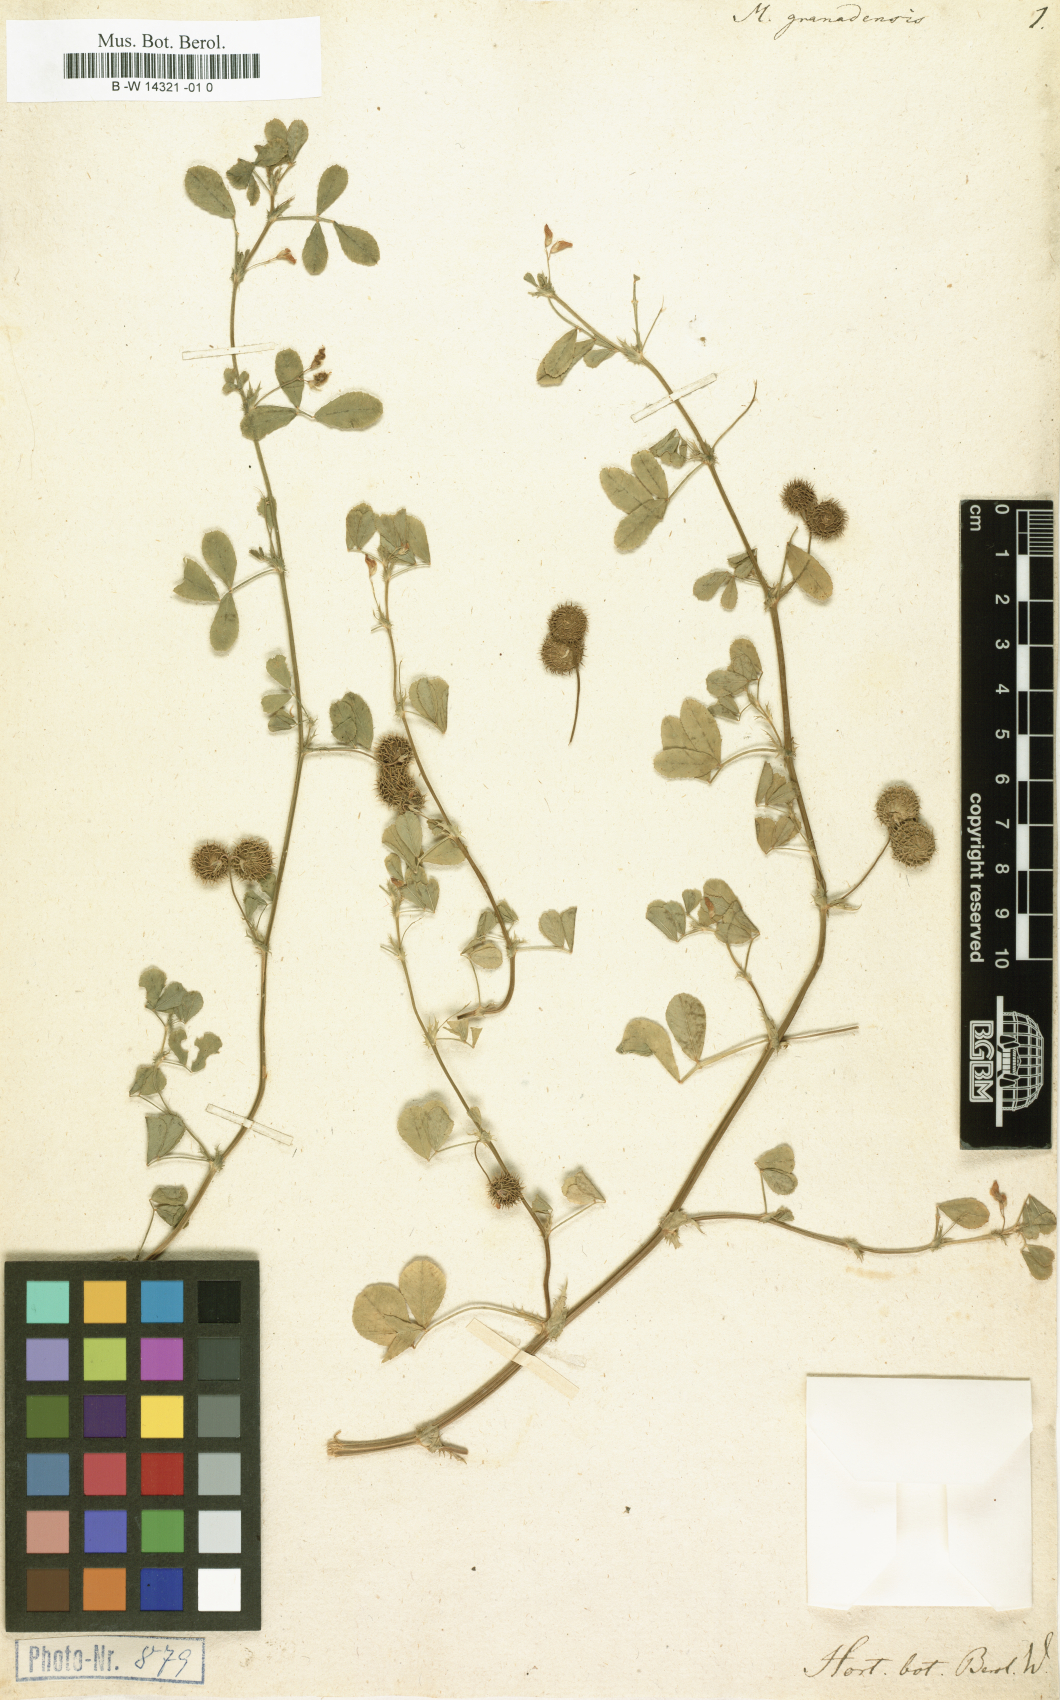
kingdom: Plantae
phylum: Tracheophyta
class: Magnoliopsida
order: Fabales
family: Fabaceae
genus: Medicago
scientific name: Medicago granadensis
